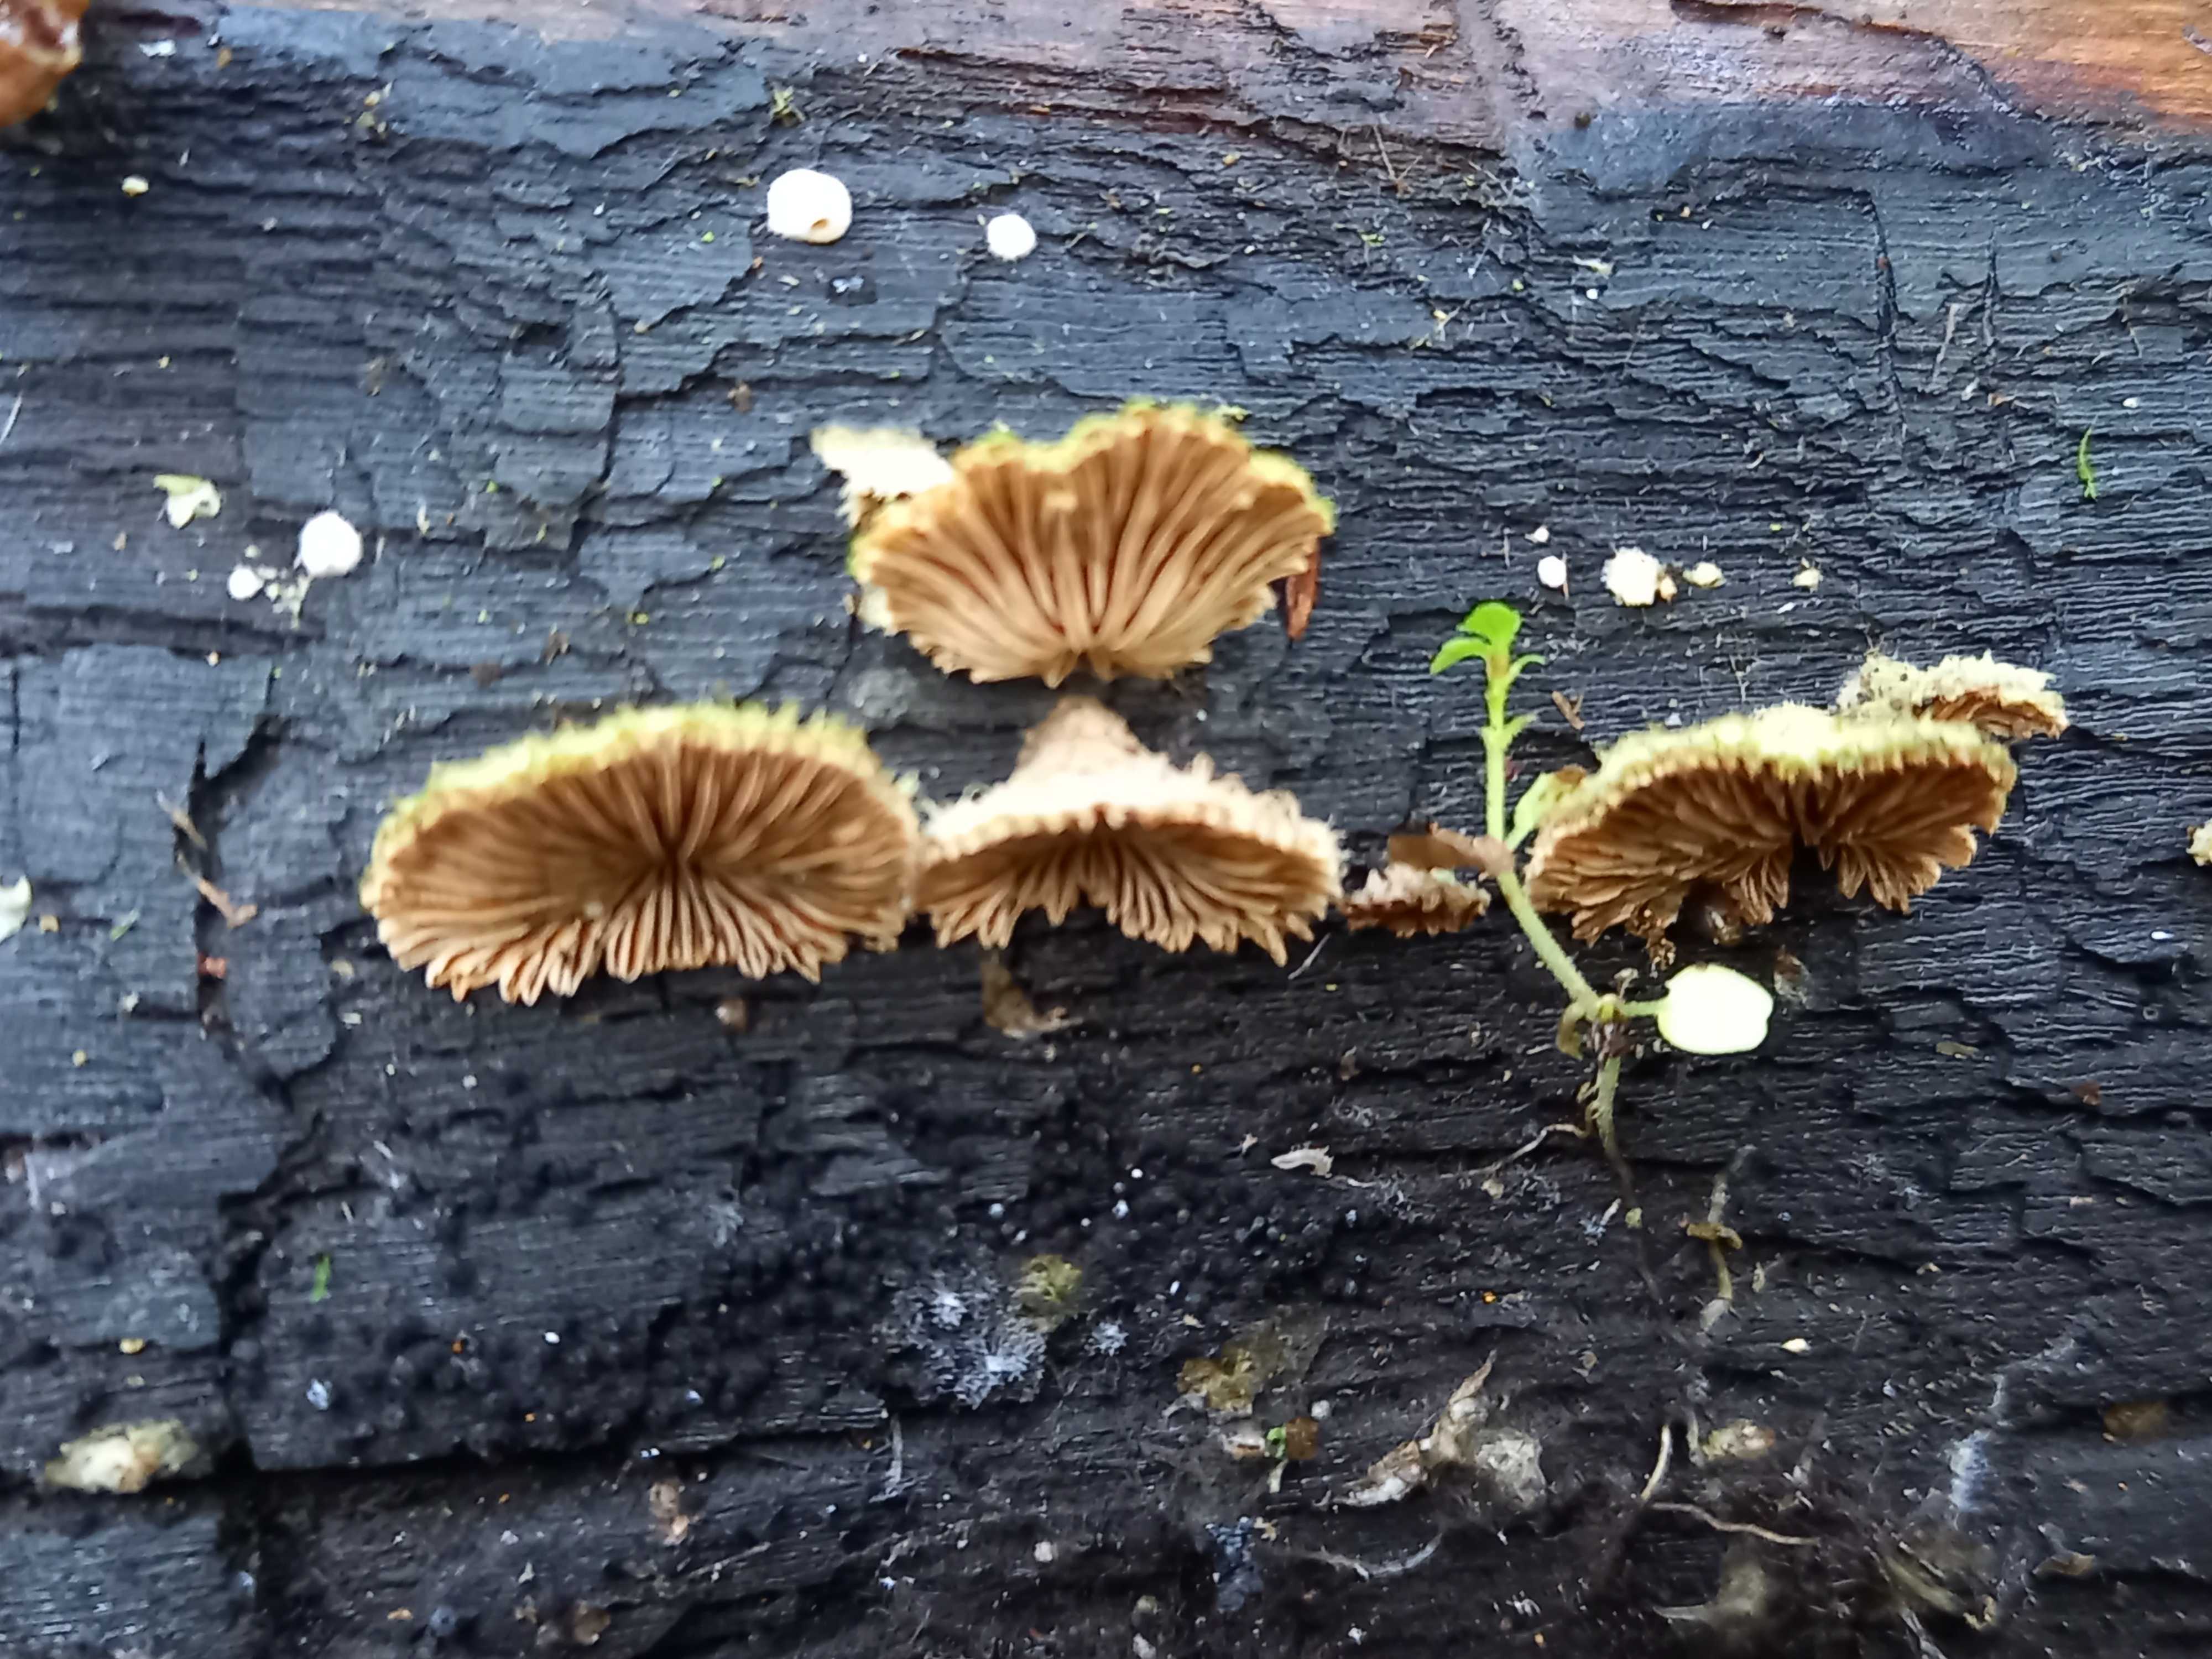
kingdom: Fungi
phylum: Basidiomycota
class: Agaricomycetes
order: Agaricales
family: Schizophyllaceae
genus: Schizophyllum
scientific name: Schizophyllum commune
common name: kløvblad
